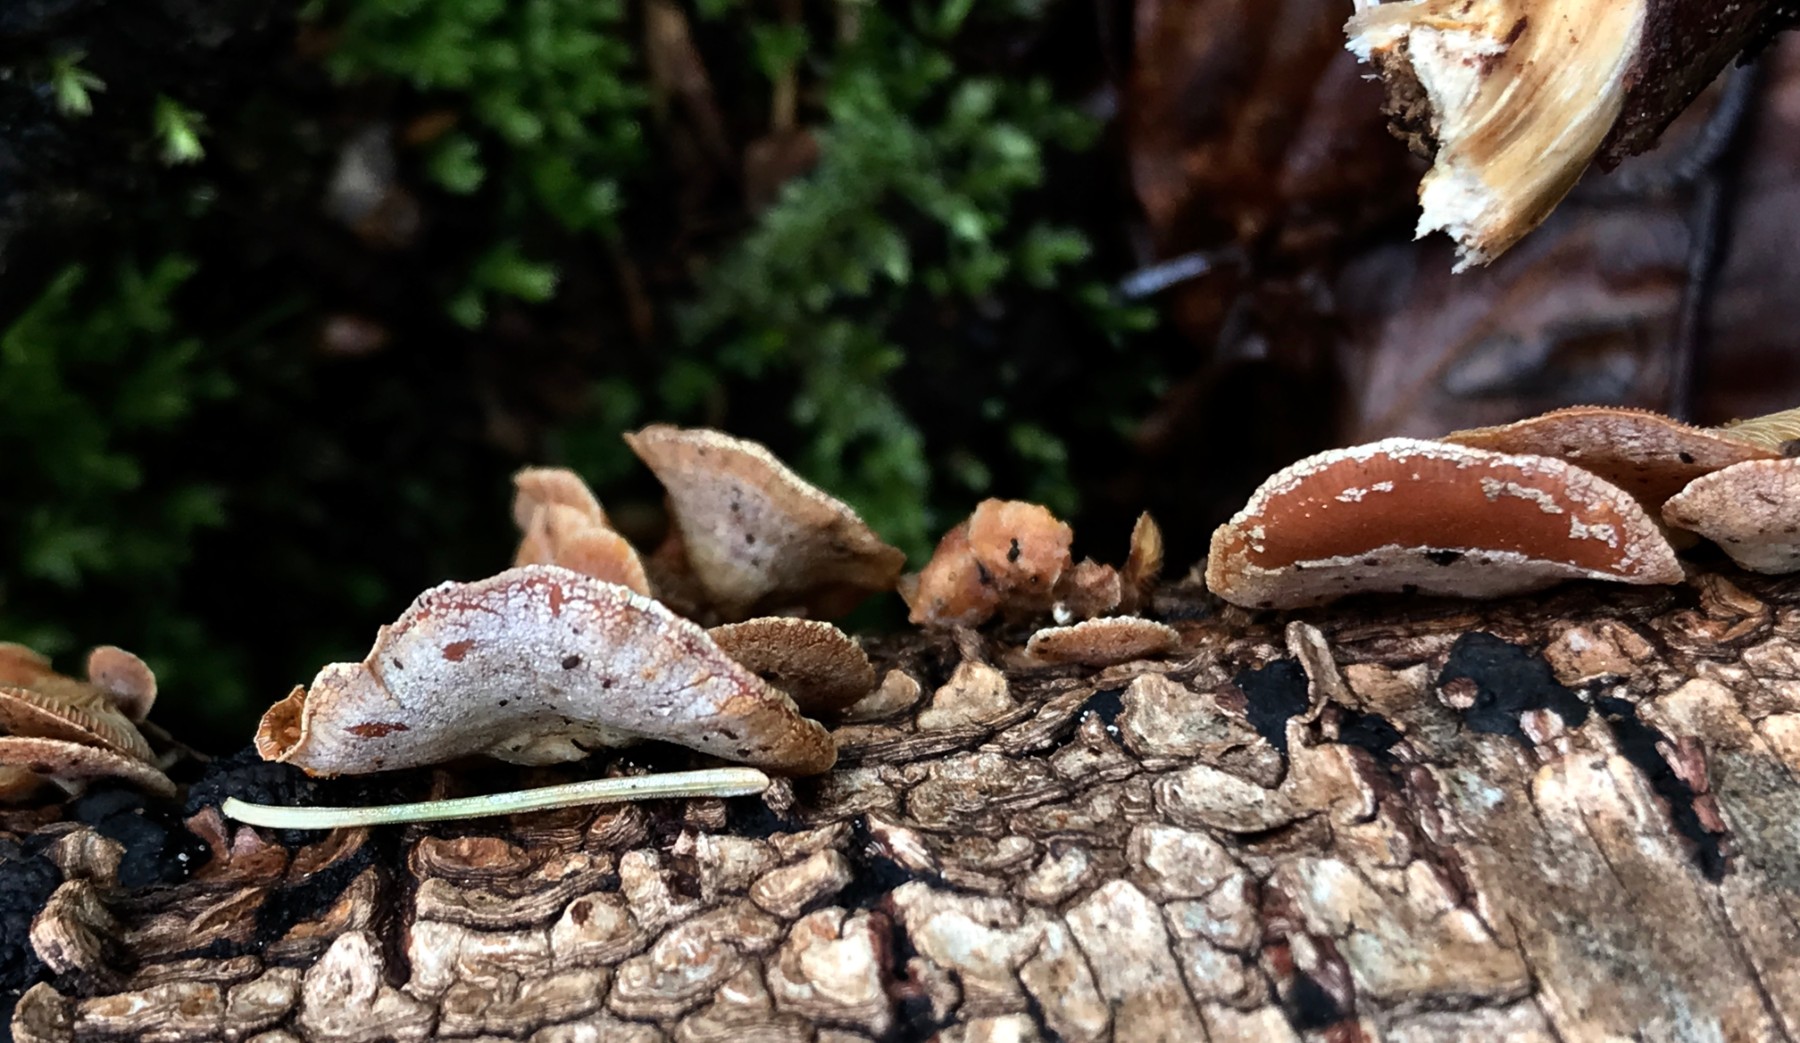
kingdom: Fungi
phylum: Basidiomycota
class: Agaricomycetes
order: Agaricales
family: Mycenaceae
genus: Panellus
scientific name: Panellus stipticus
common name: kliddet epaulethat
